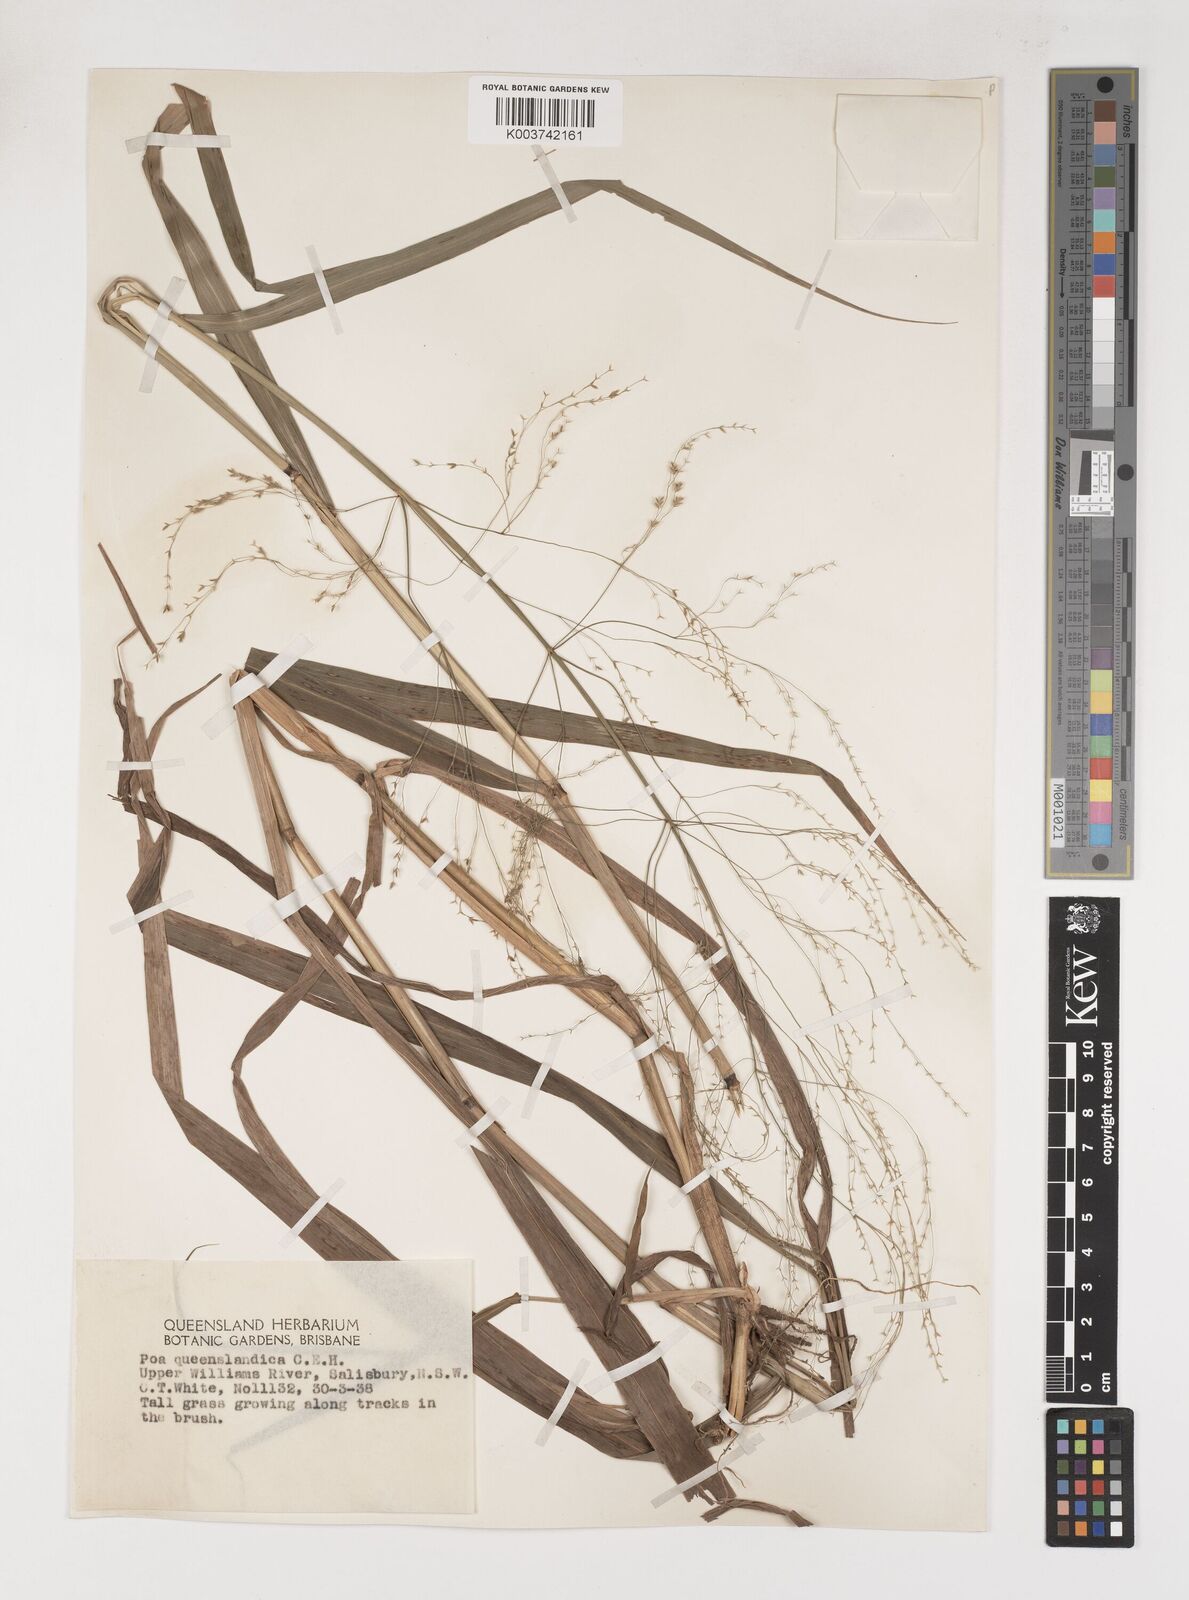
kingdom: Plantae
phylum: Tracheophyta
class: Liliopsida
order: Poales
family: Poaceae
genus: Sylvipoa
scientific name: Sylvipoa queenslandica
